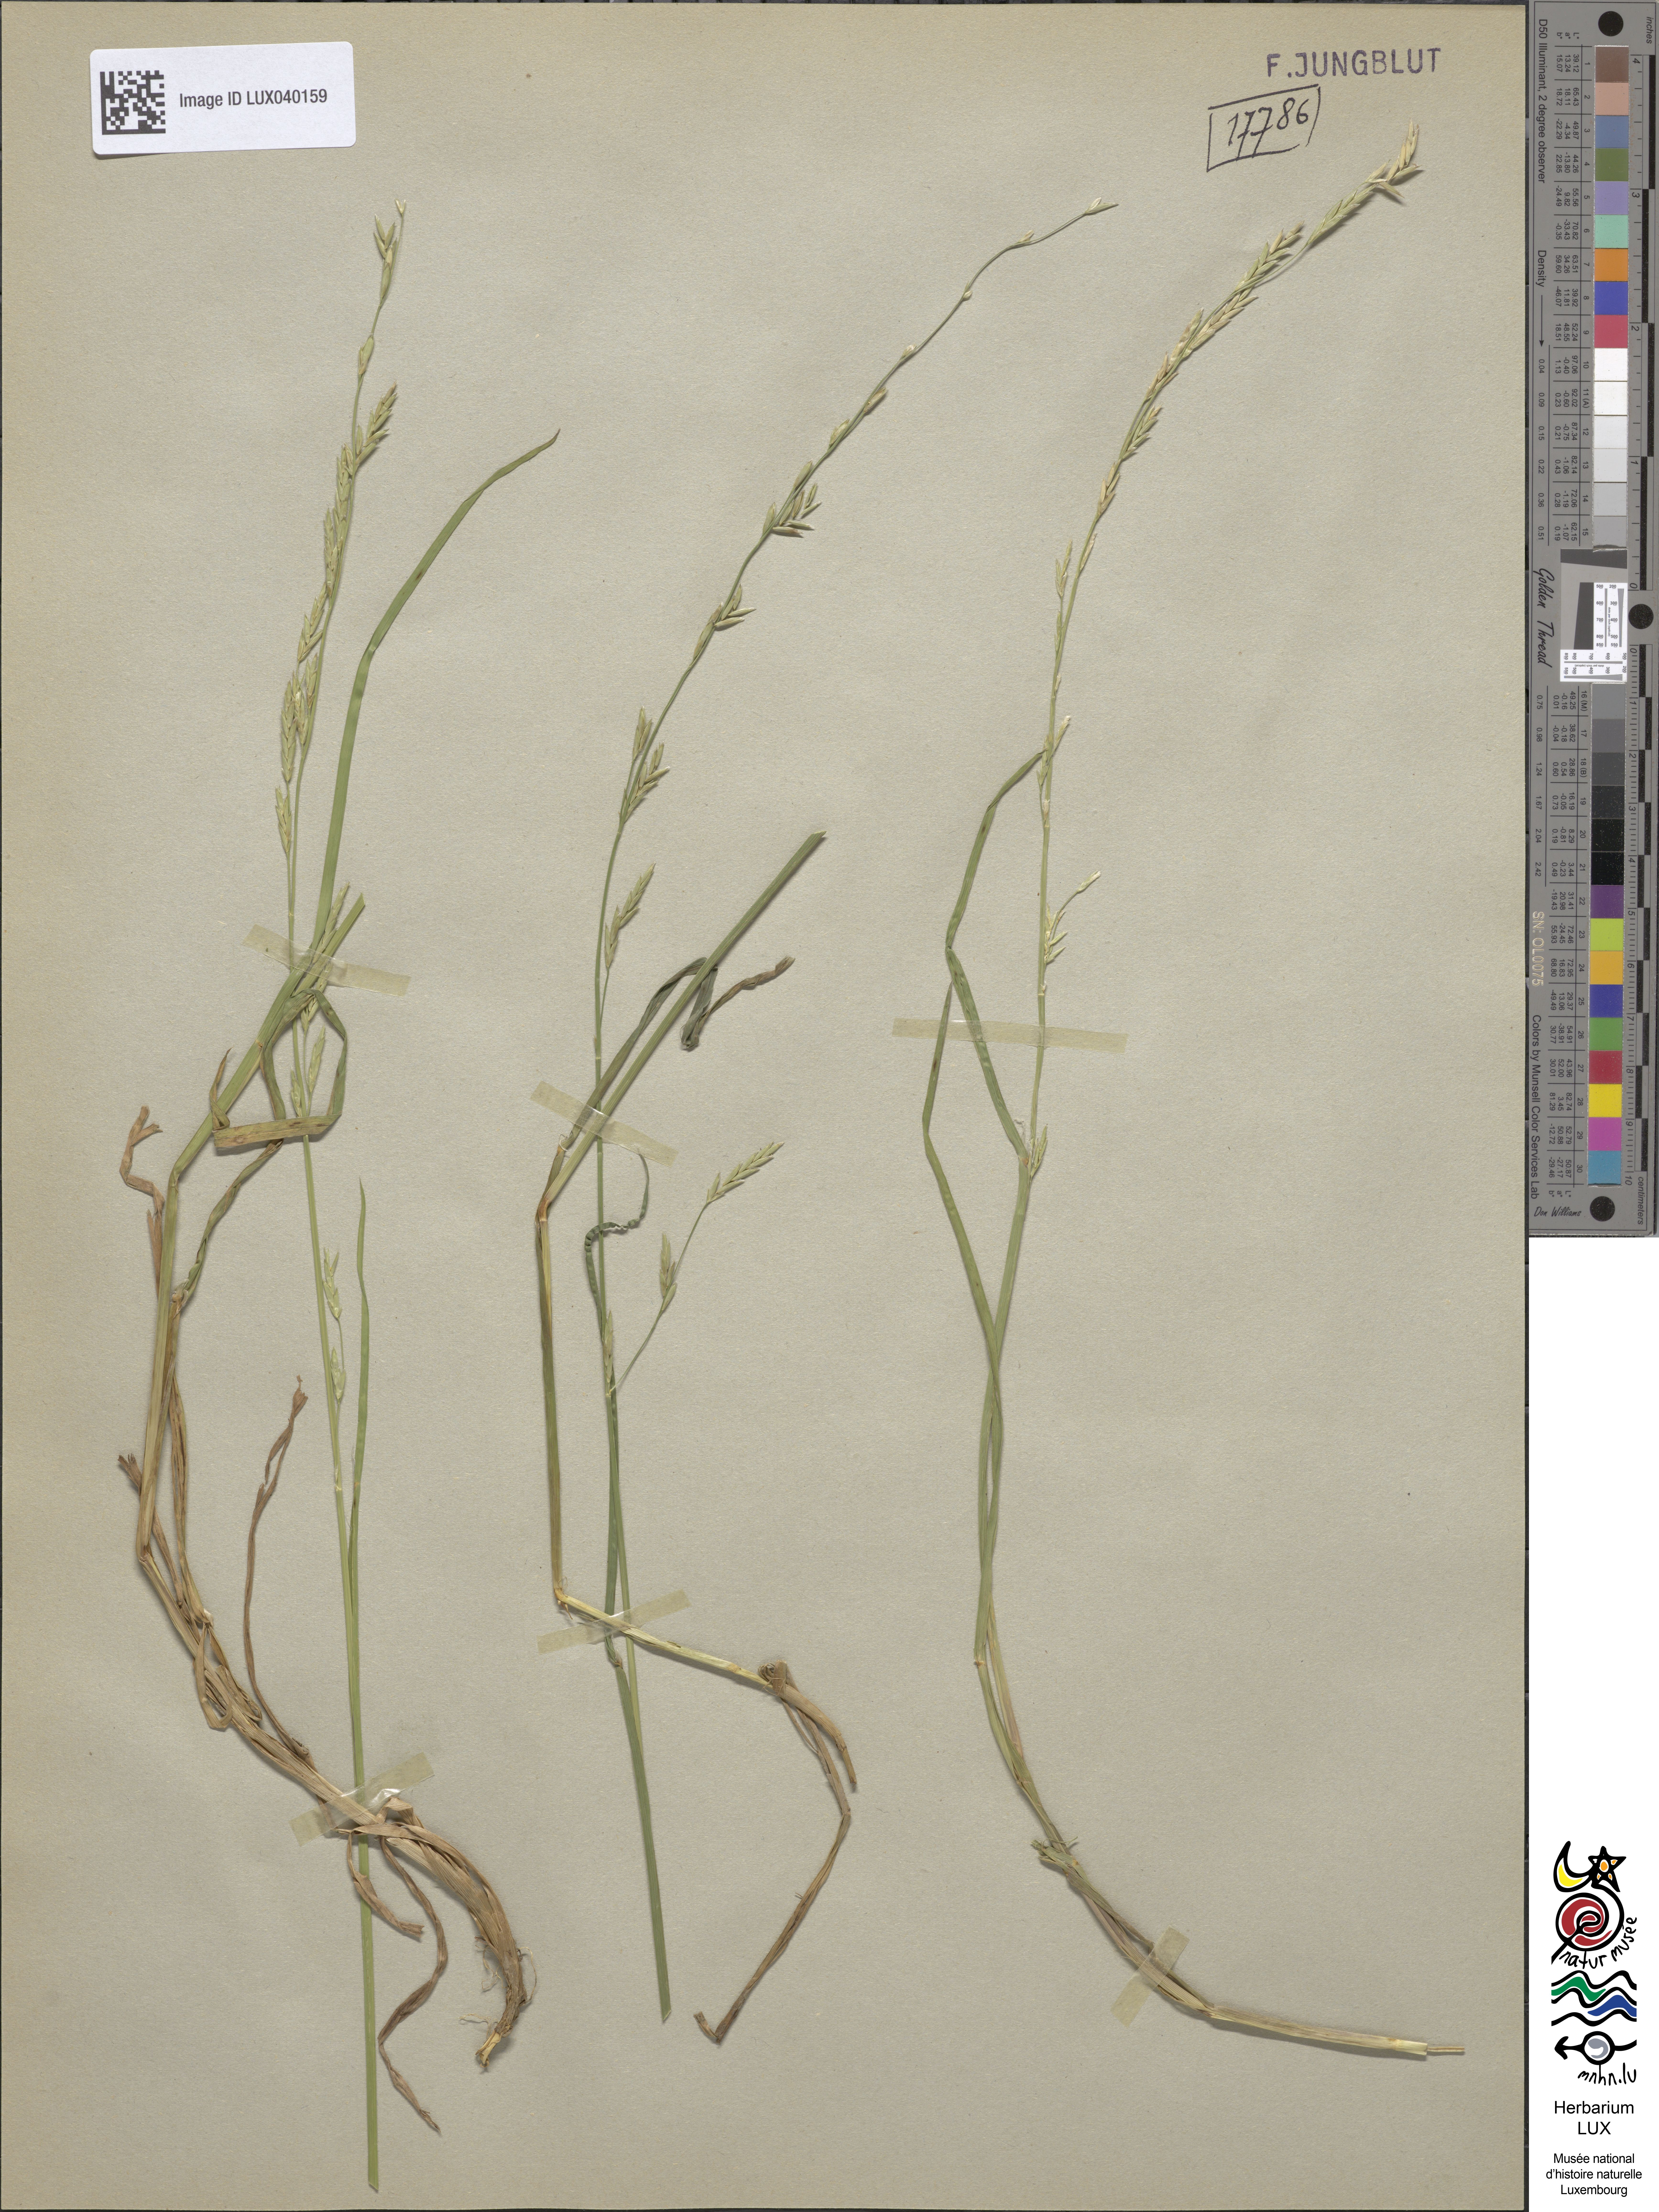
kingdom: Plantae
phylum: Tracheophyta
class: Liliopsida
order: Poales
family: Poaceae
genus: Glyceria
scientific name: Glyceria fluitans
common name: Floating sweet-grass
